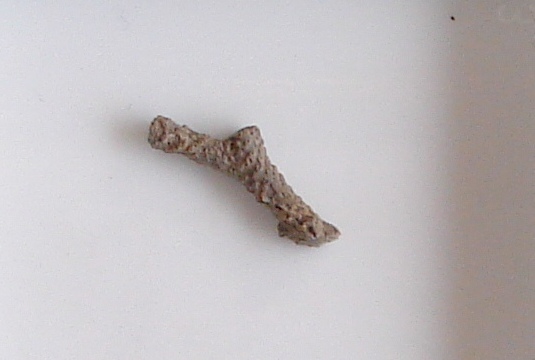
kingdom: Animalia
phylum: Bryozoa
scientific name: Bryozoa
